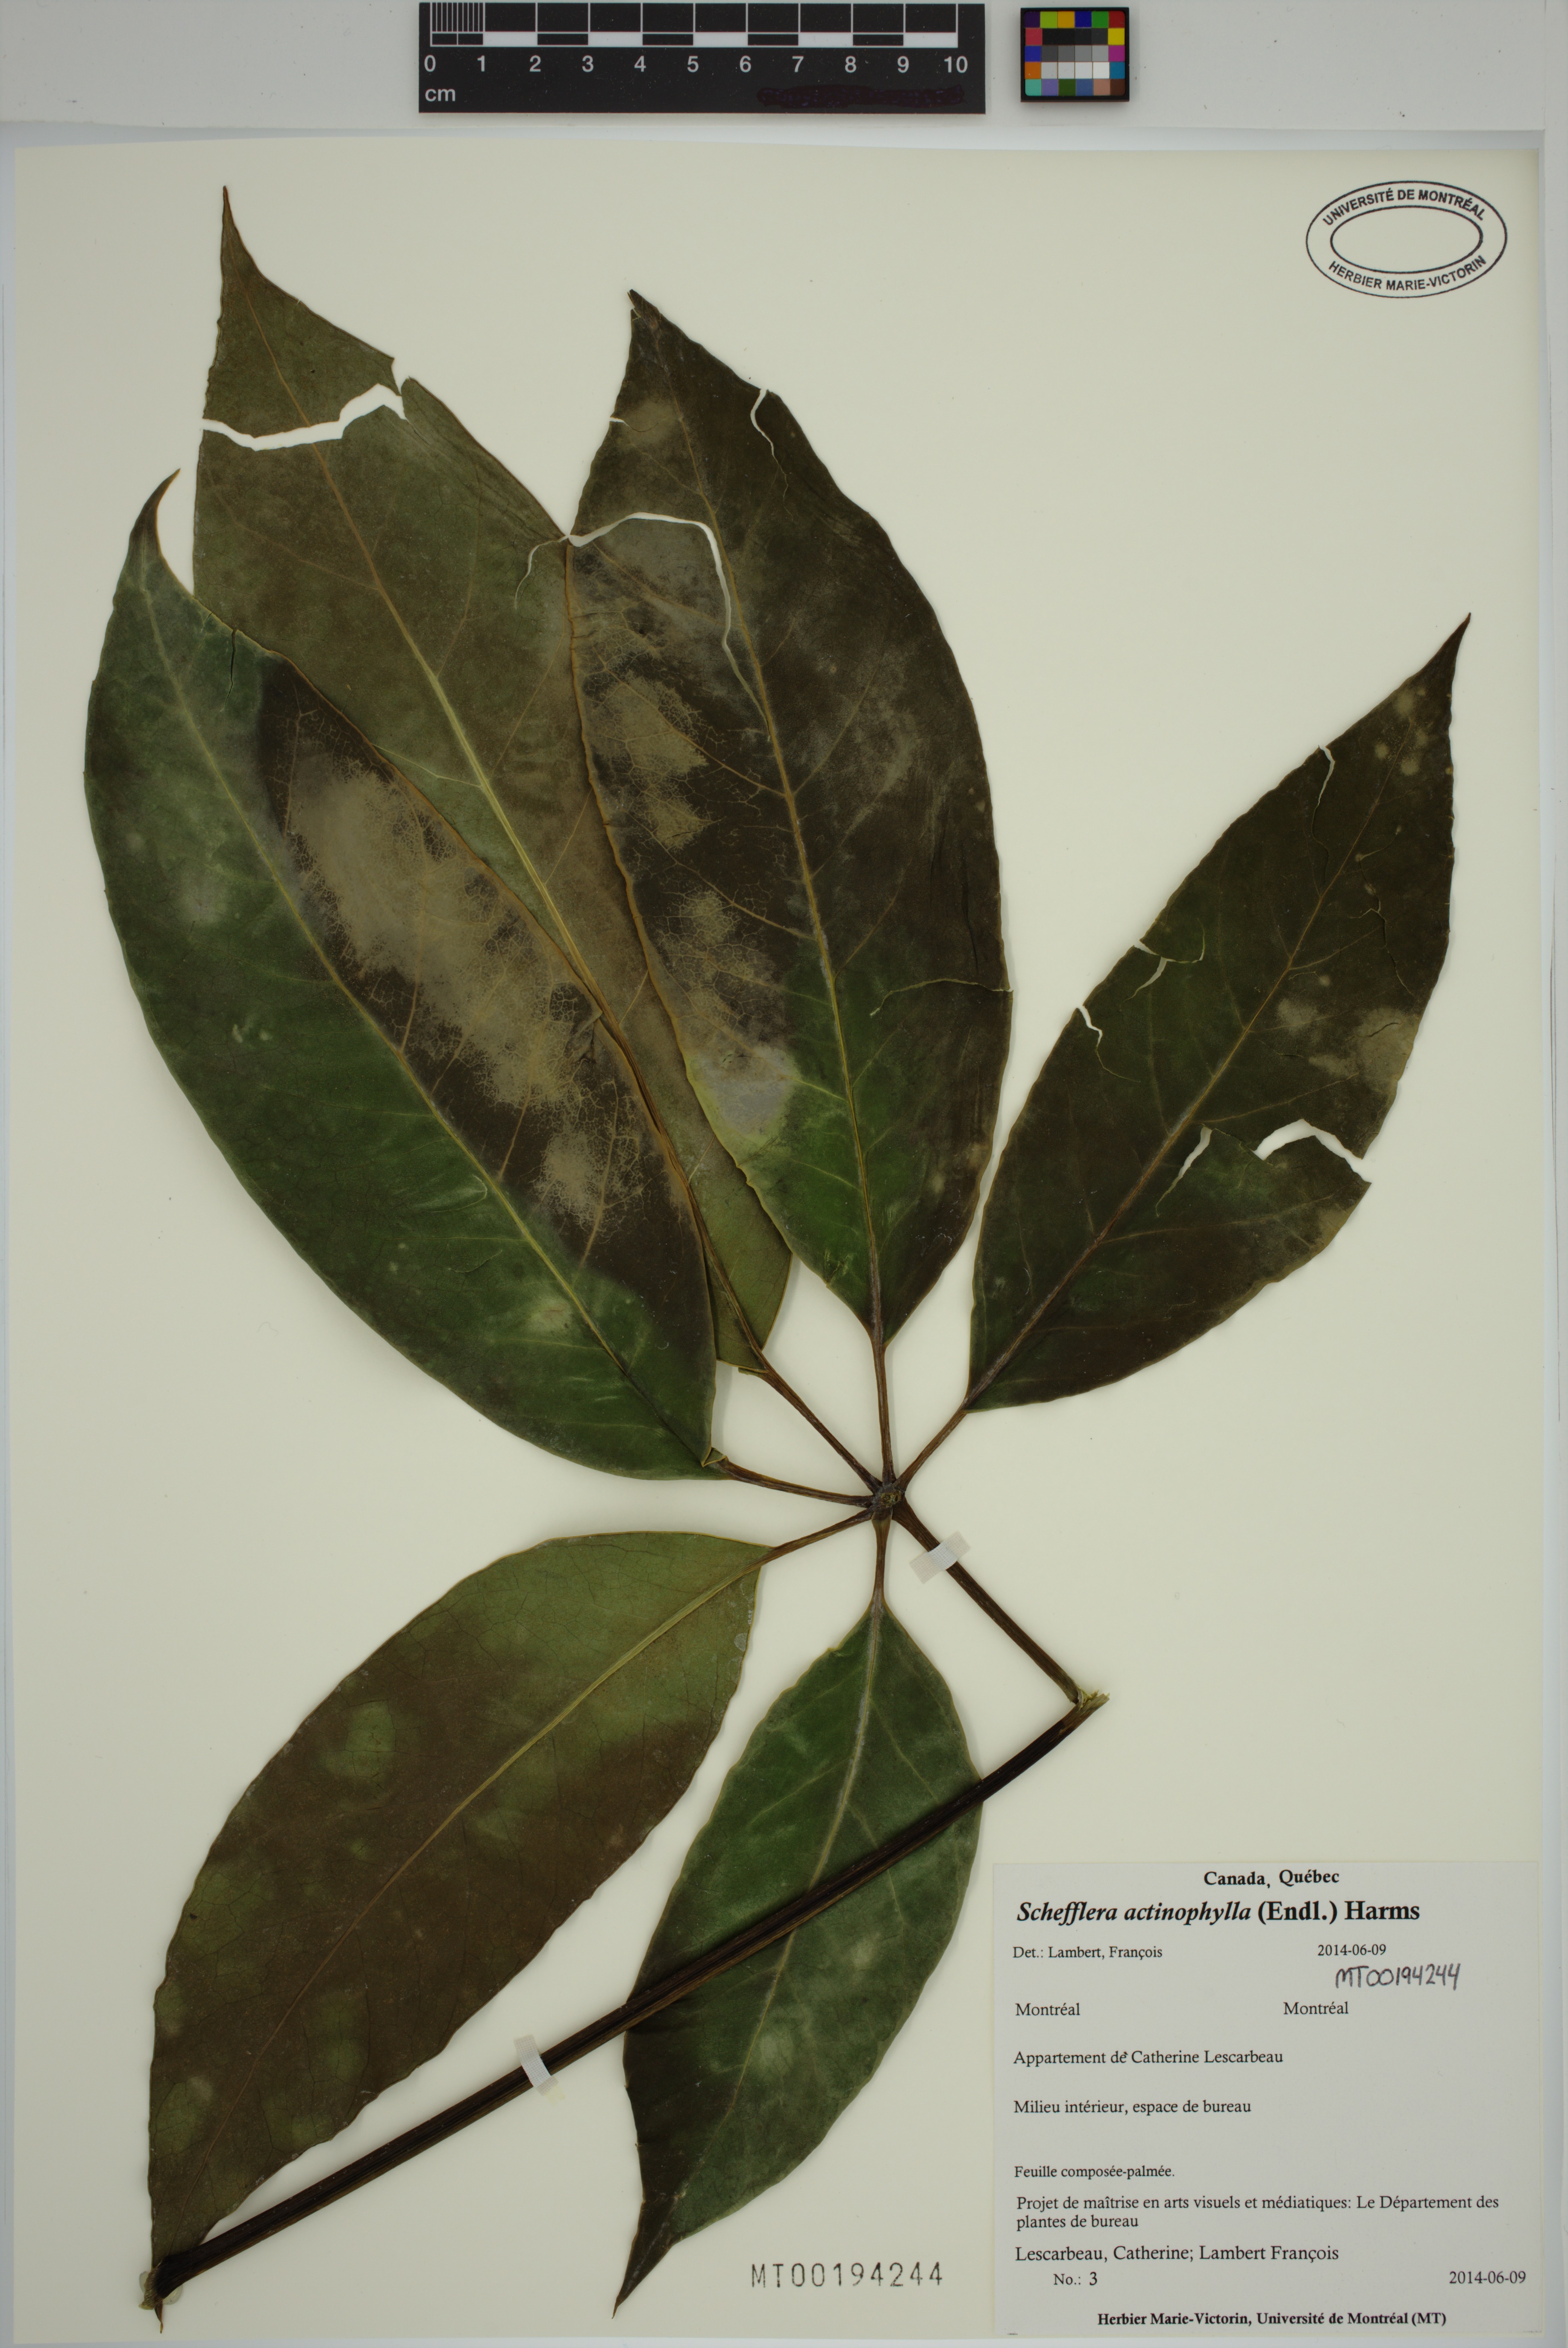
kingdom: Plantae
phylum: Tracheophyta
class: Magnoliopsida
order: Apiales
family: Araliaceae
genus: Heptapleurum
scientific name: Heptapleurum actinophyllum
